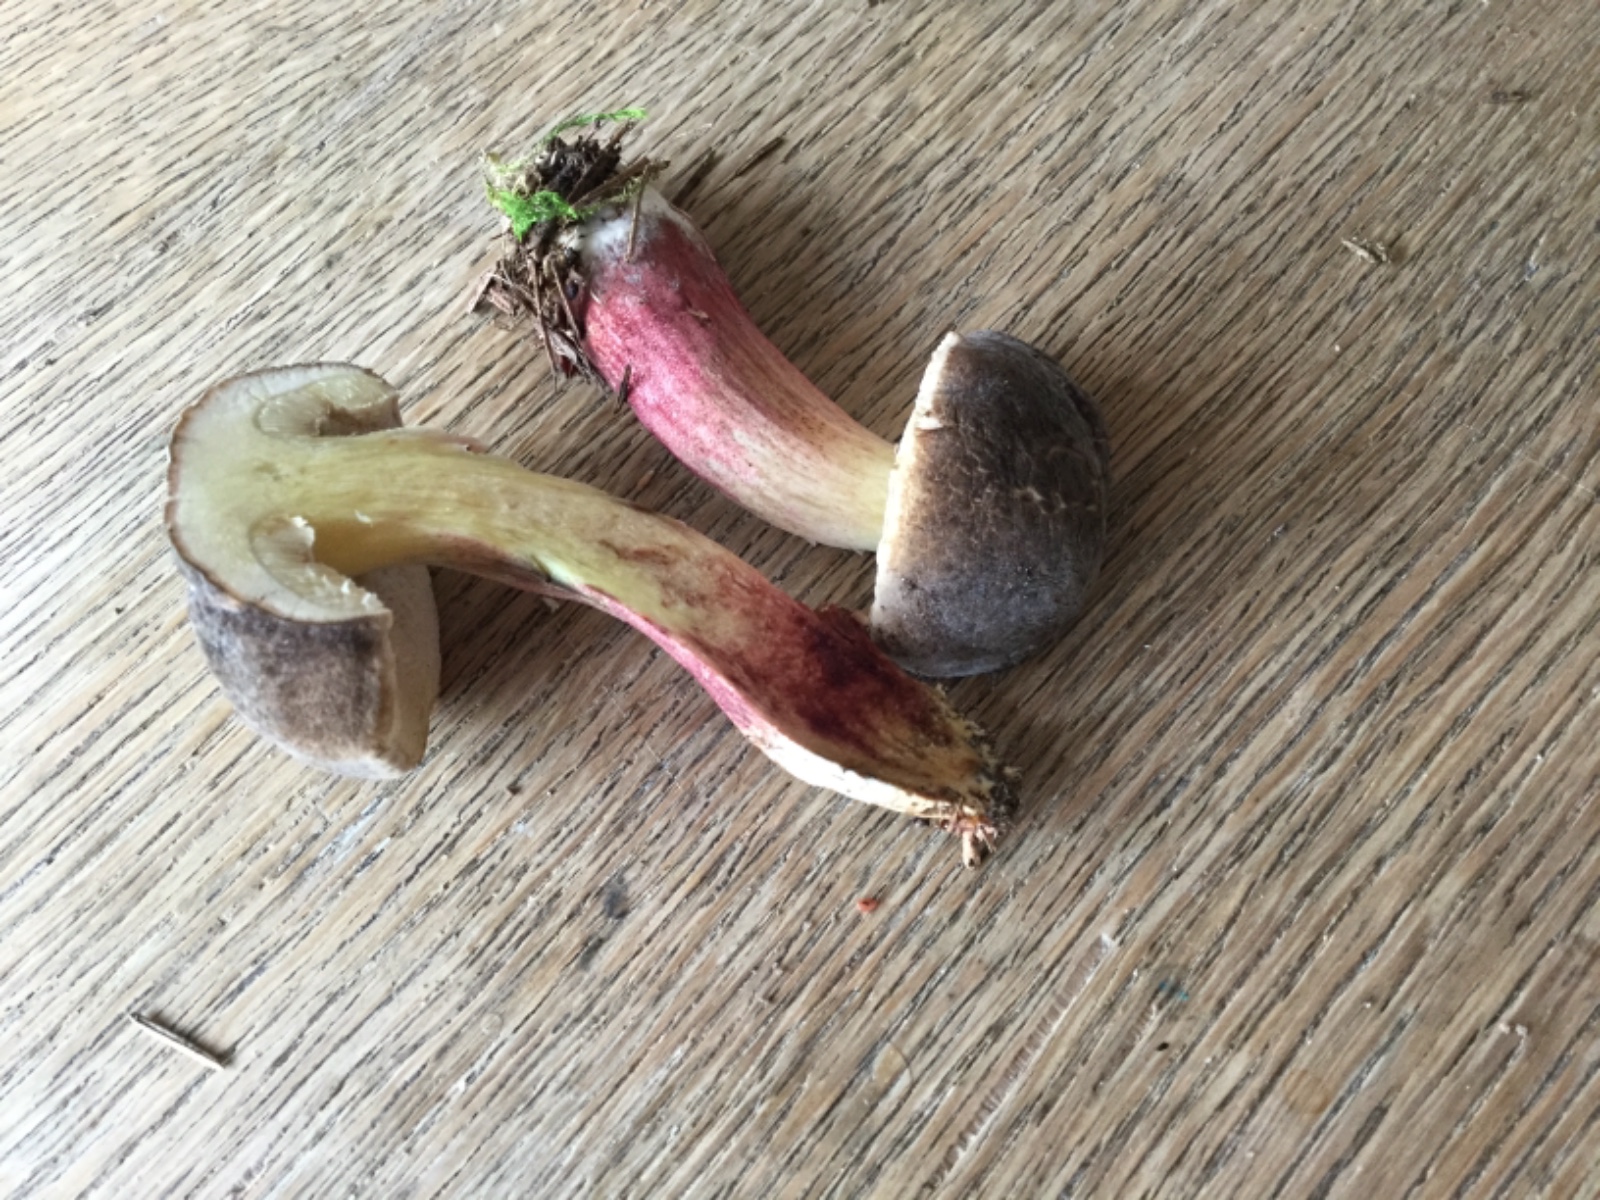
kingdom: Fungi
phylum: Basidiomycota
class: Agaricomycetes
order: Boletales
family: Boletaceae
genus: Xerocomellus
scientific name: Xerocomellus pruinatus
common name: dugget rørhat
